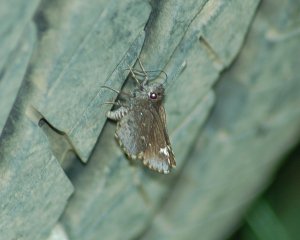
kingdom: Animalia
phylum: Arthropoda
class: Insecta
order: Lepidoptera
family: Hesperiidae
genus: Mastor
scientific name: Mastor vialis
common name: Common Roadside-Skipper
